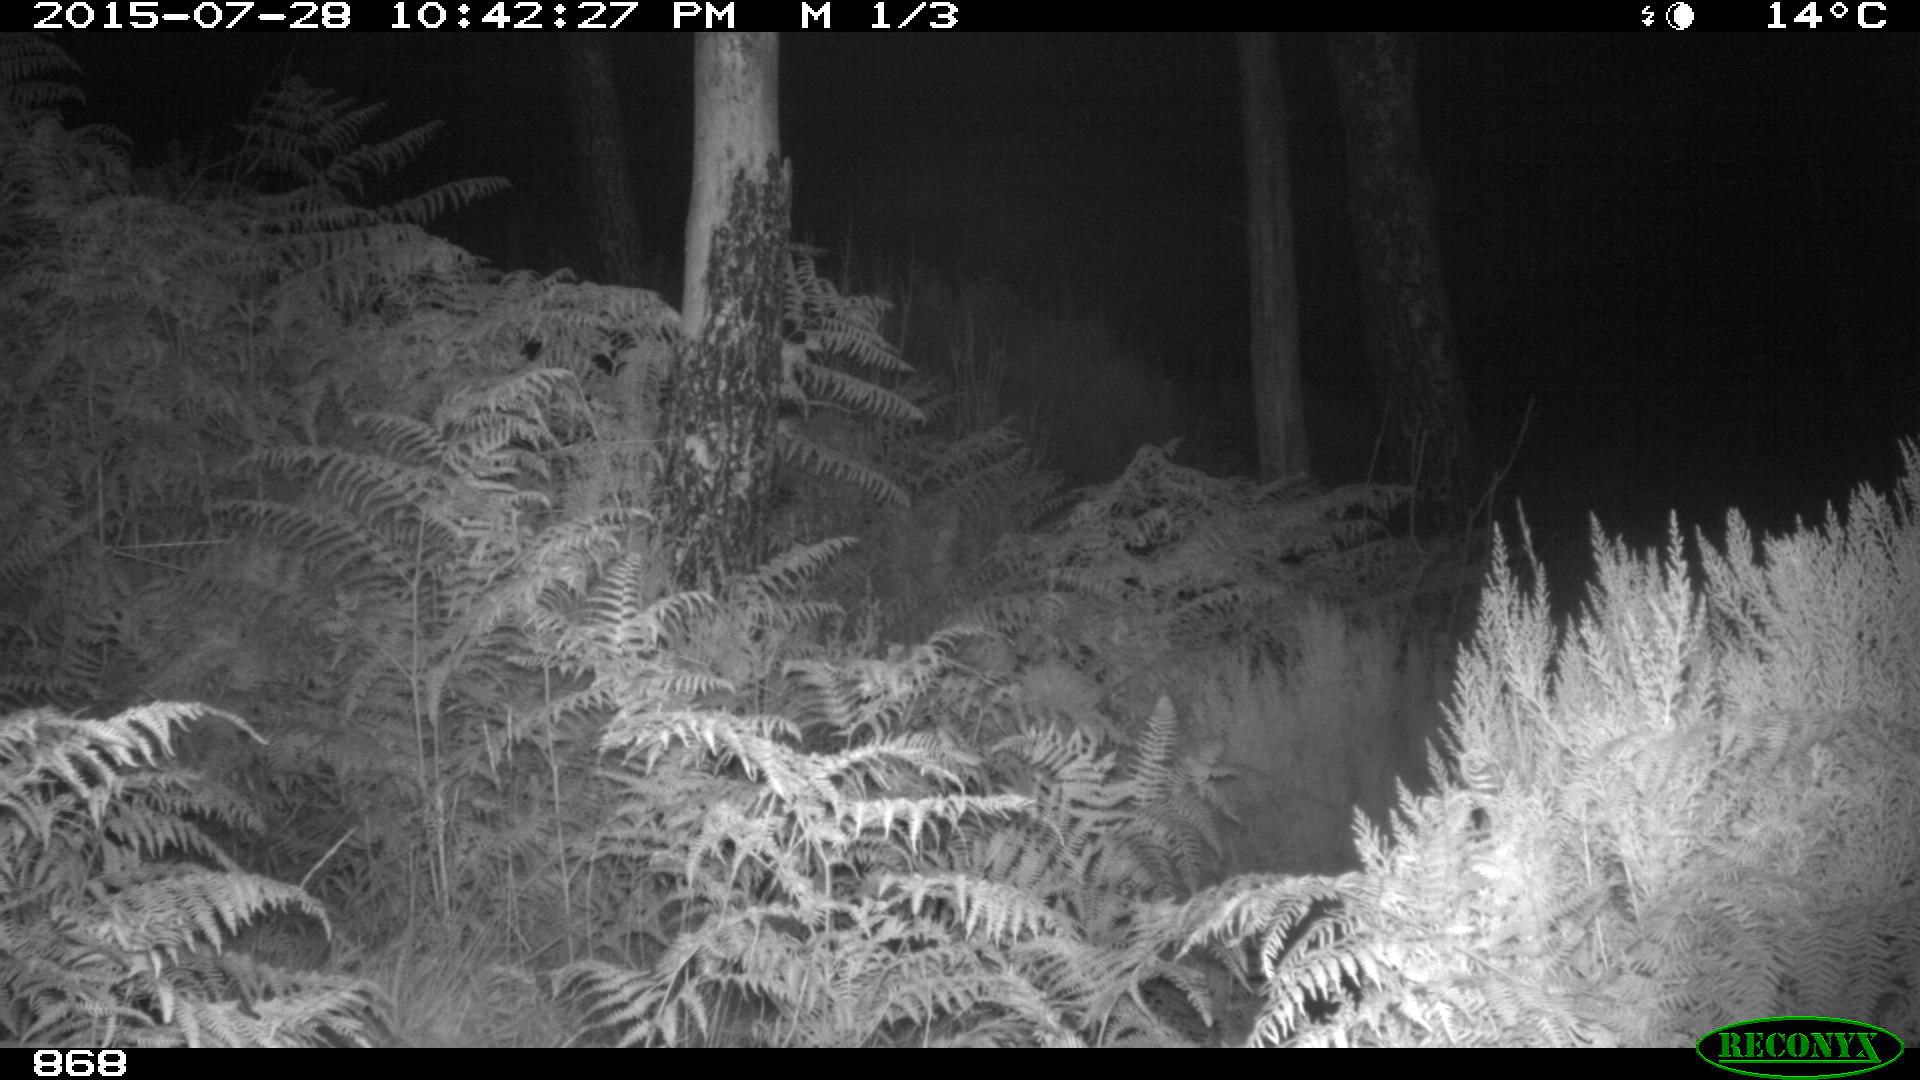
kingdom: Animalia
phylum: Chordata
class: Mammalia
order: Perissodactyla
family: Equidae
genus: Equus
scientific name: Equus caballus
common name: Horse
